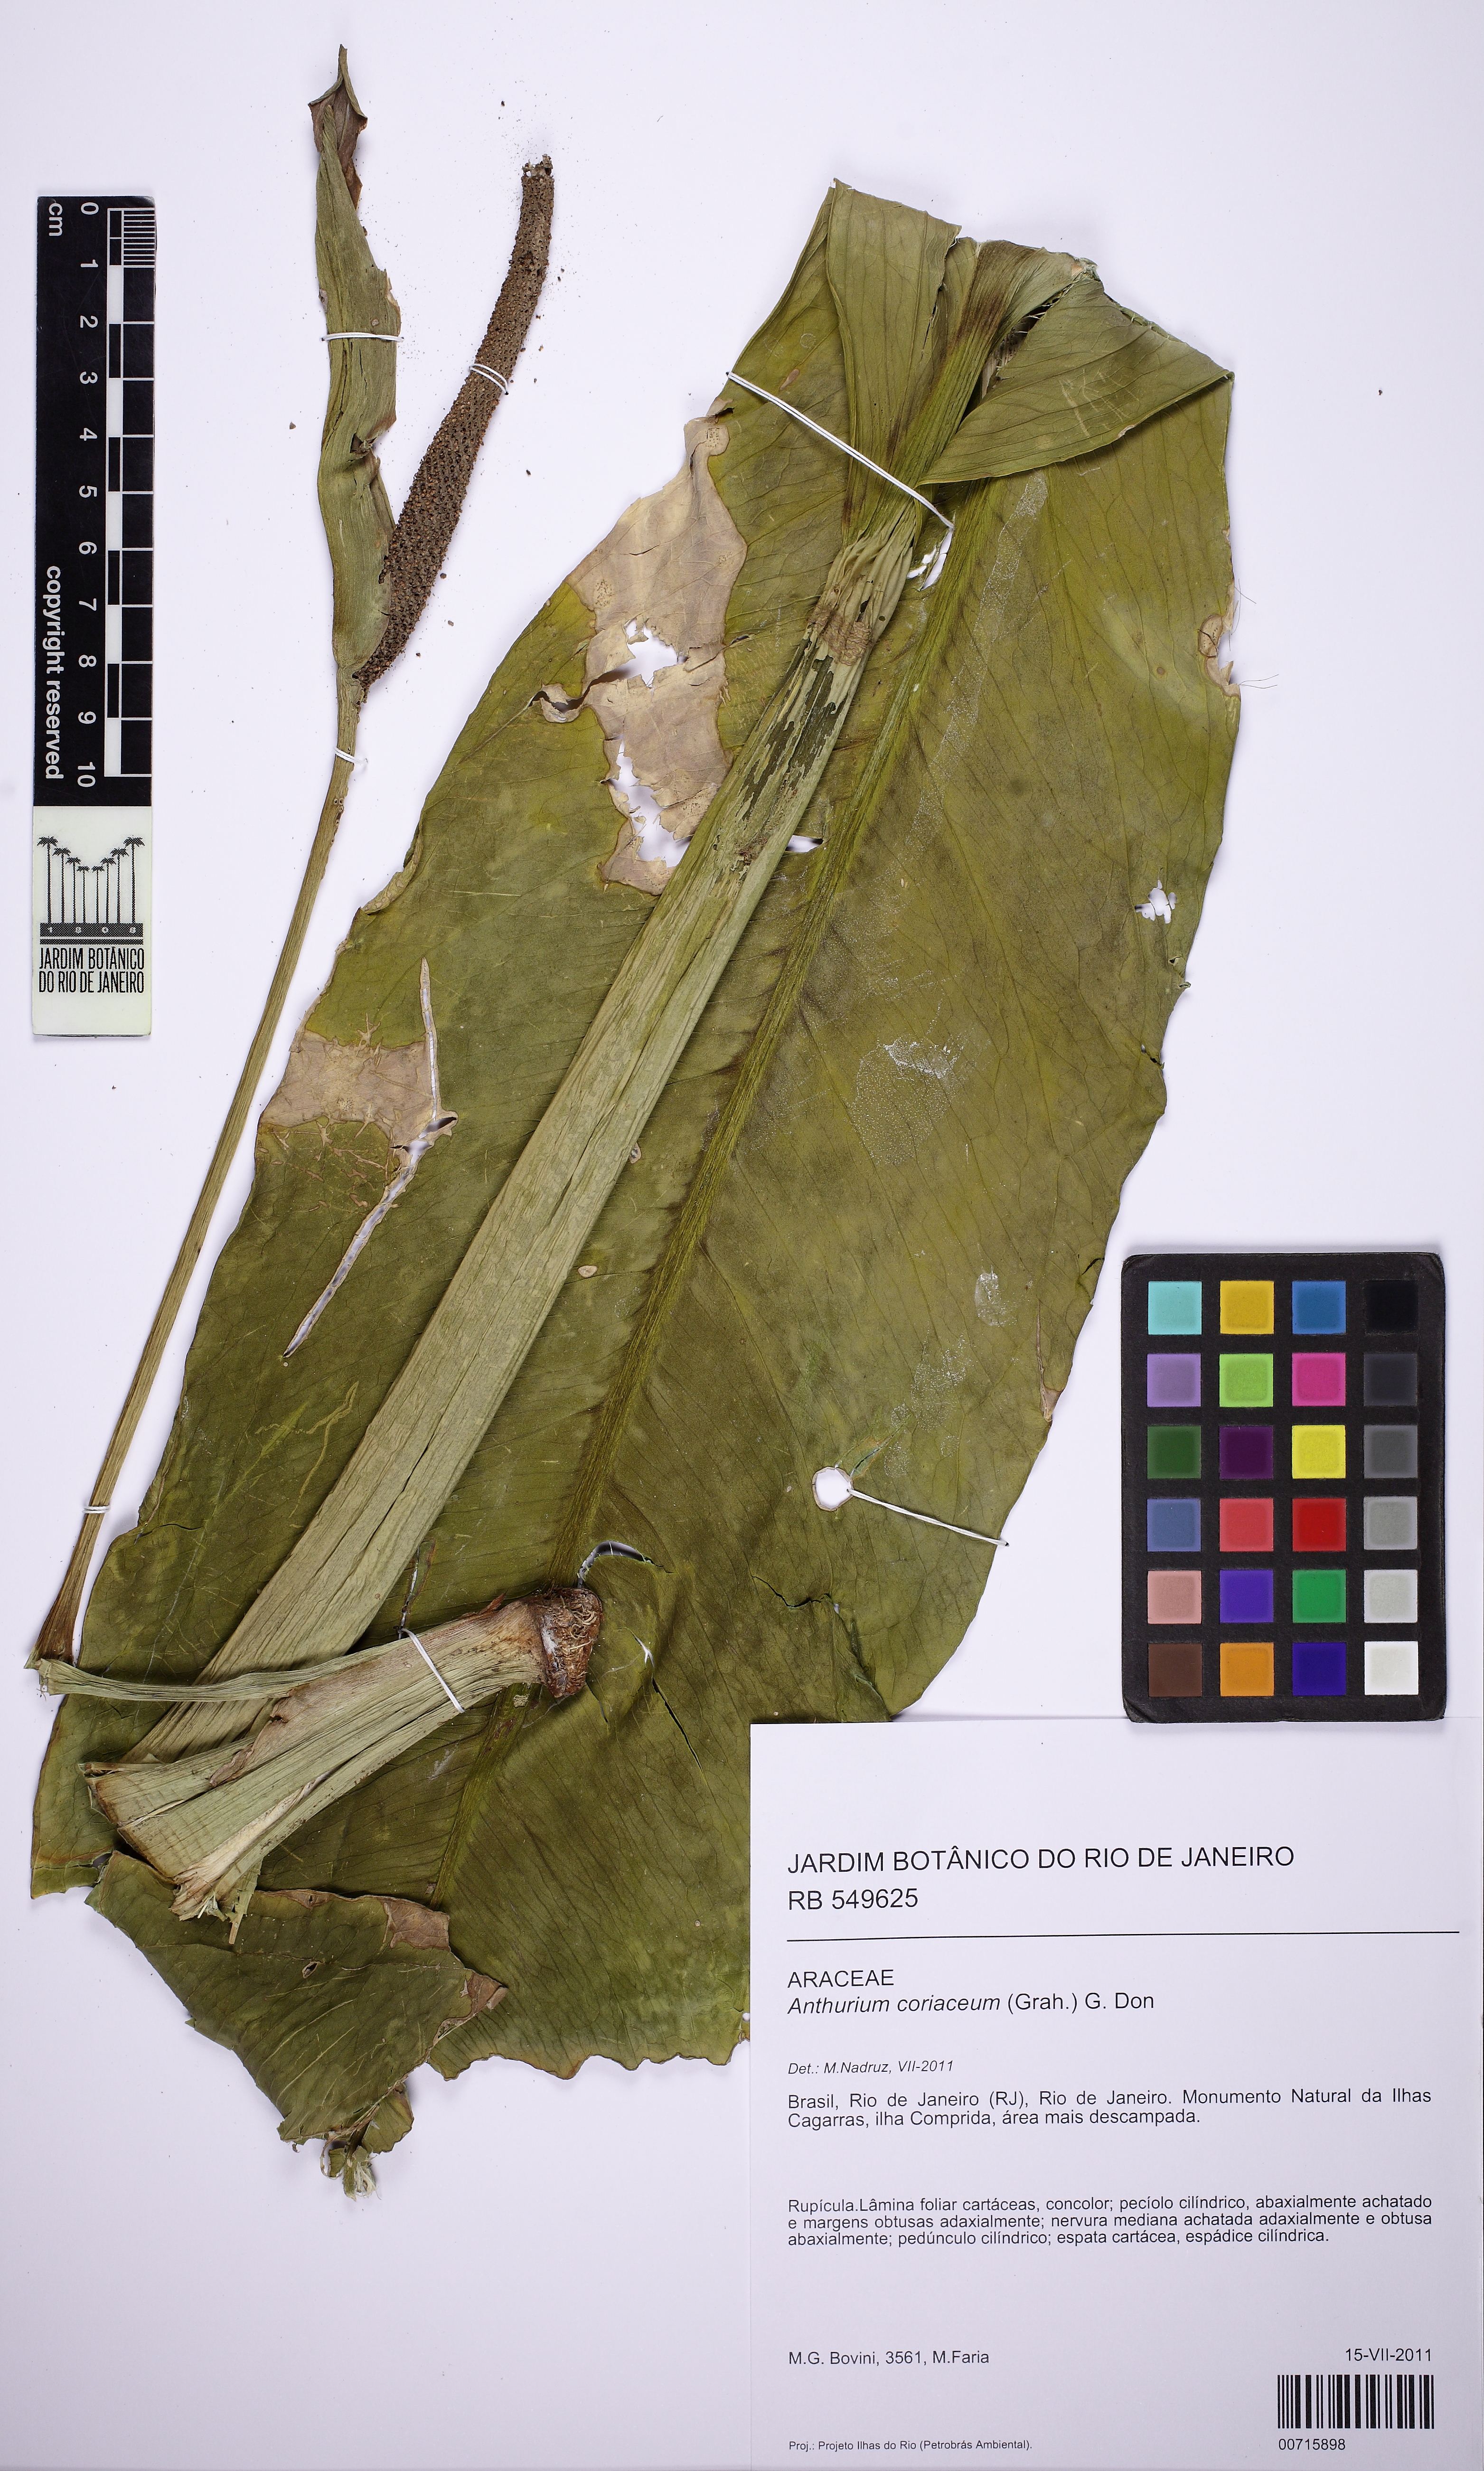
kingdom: Plantae
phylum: Tracheophyta
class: Liliopsida
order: Alismatales
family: Araceae
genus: Anthurium
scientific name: Anthurium coriaceum
